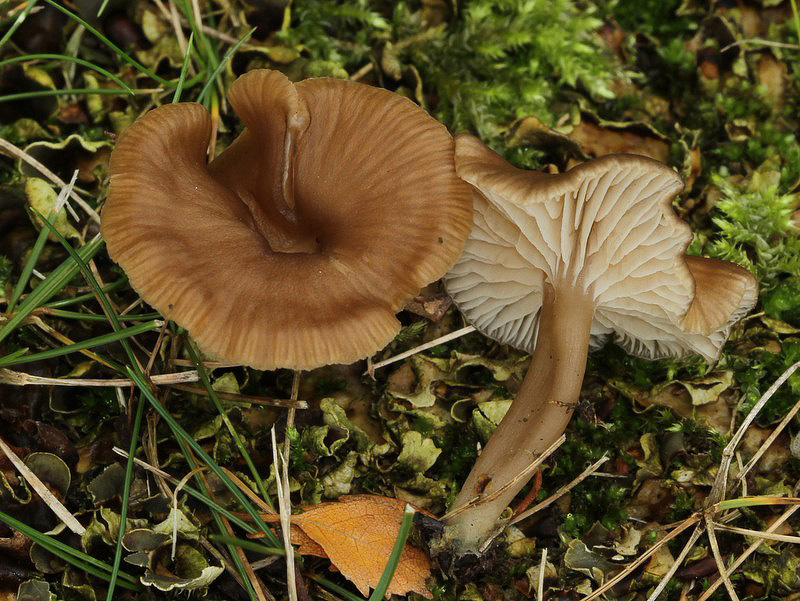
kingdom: Fungi
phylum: Basidiomycota
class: Agaricomycetes
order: Agaricales
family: Tricholomataceae
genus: Gamundia
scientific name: Gamundia xerophila
